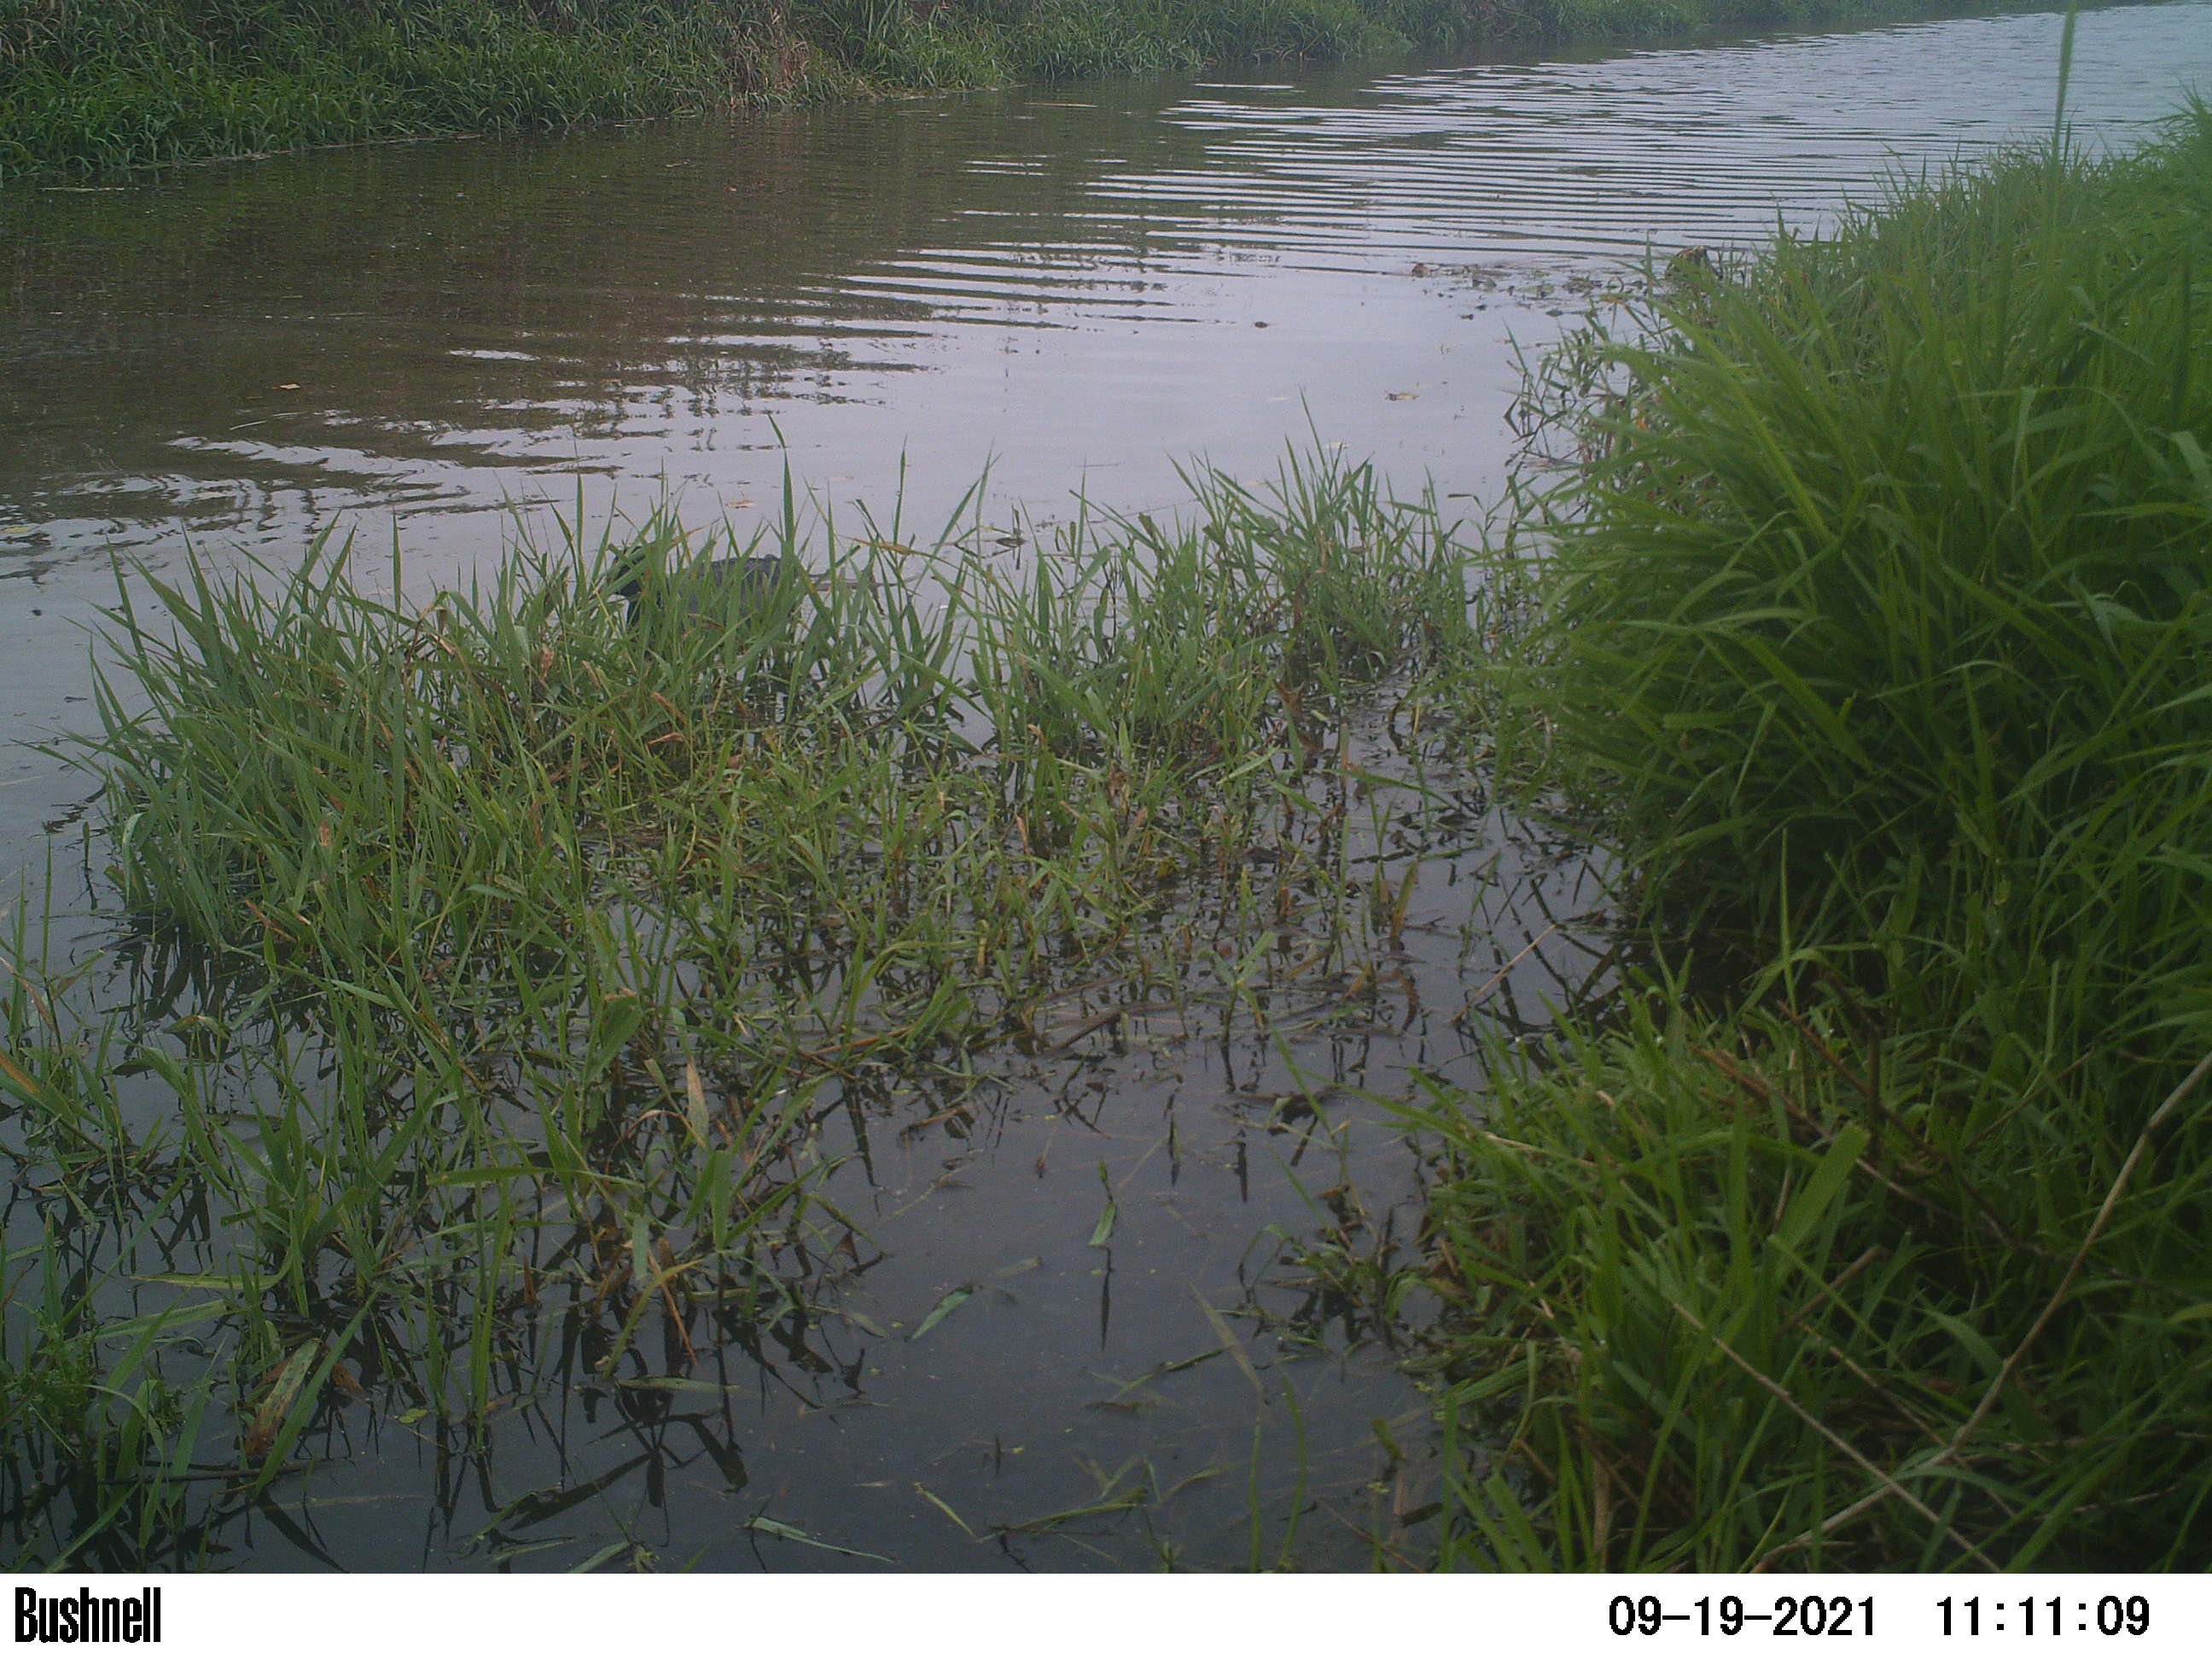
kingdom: Animalia
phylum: Chordata
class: Aves
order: Gruiformes
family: Rallidae
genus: Fulica
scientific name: Fulica atra
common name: Eurasian coot
